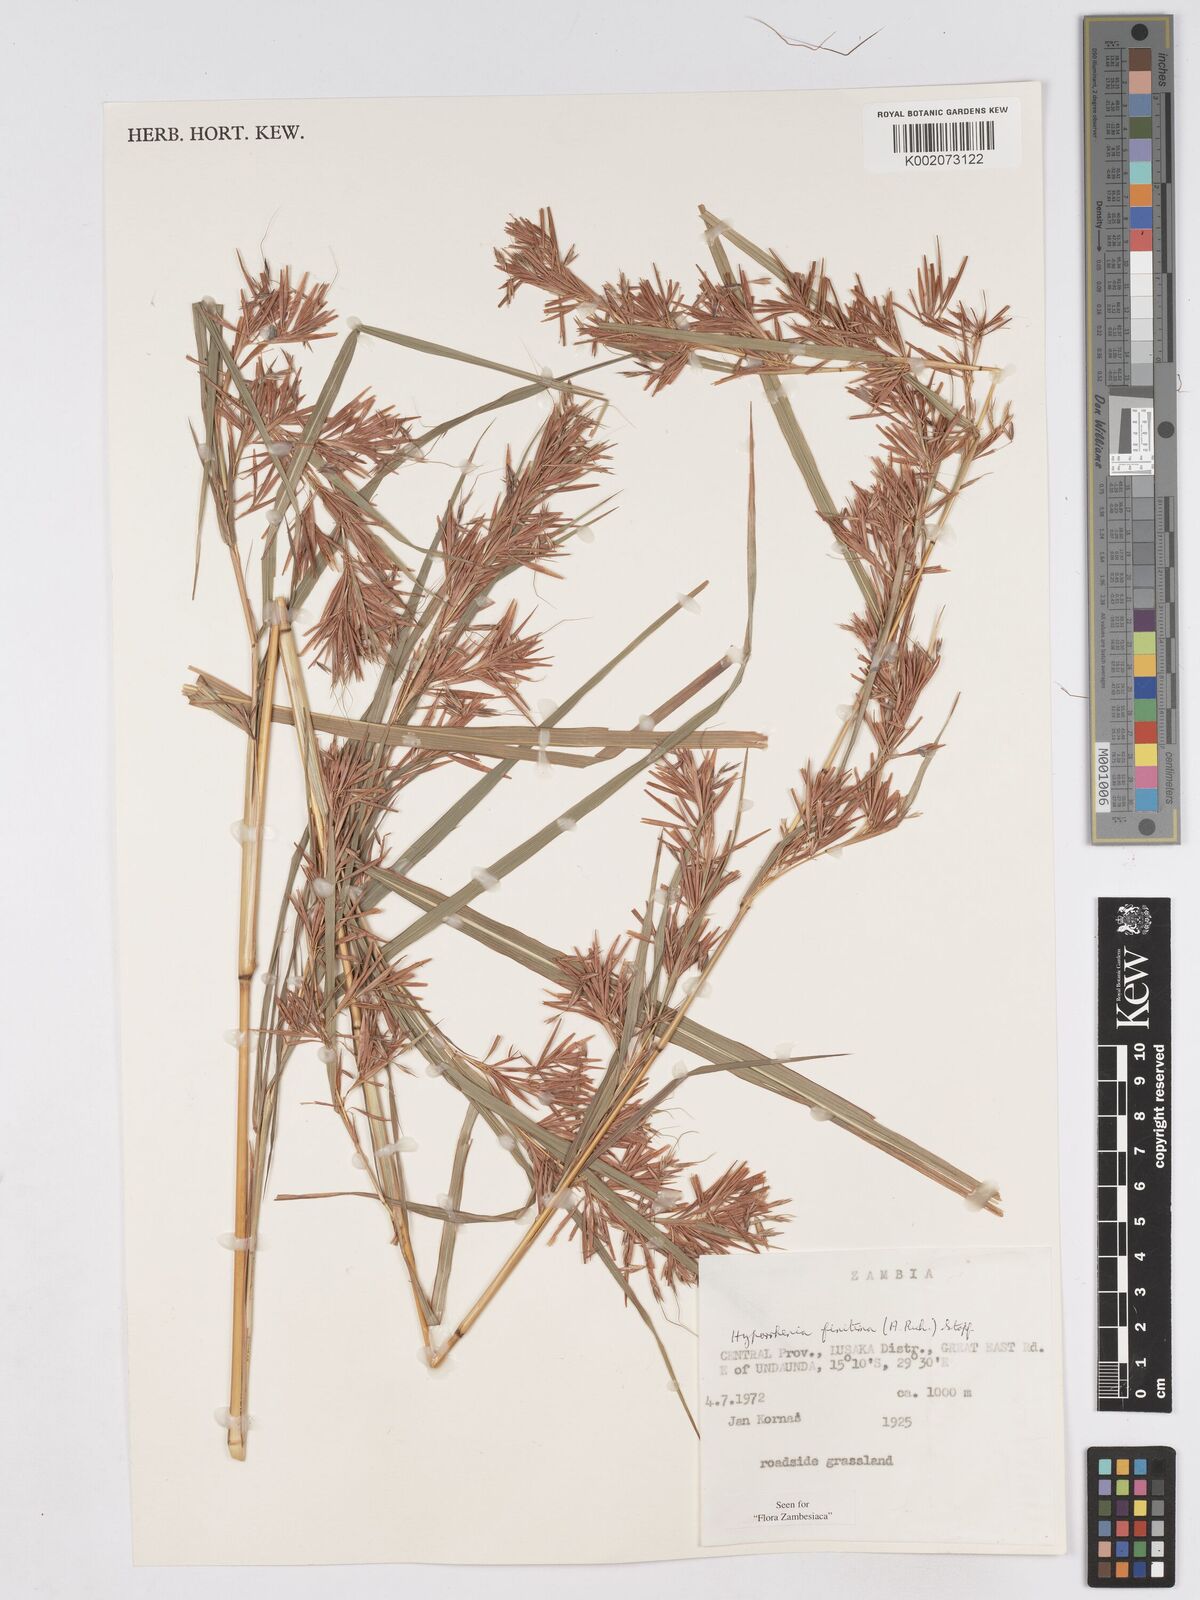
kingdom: Plantae
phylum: Tracheophyta
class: Liliopsida
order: Poales
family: Poaceae
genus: Hyparrhenia
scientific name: Hyparrhenia finitima
